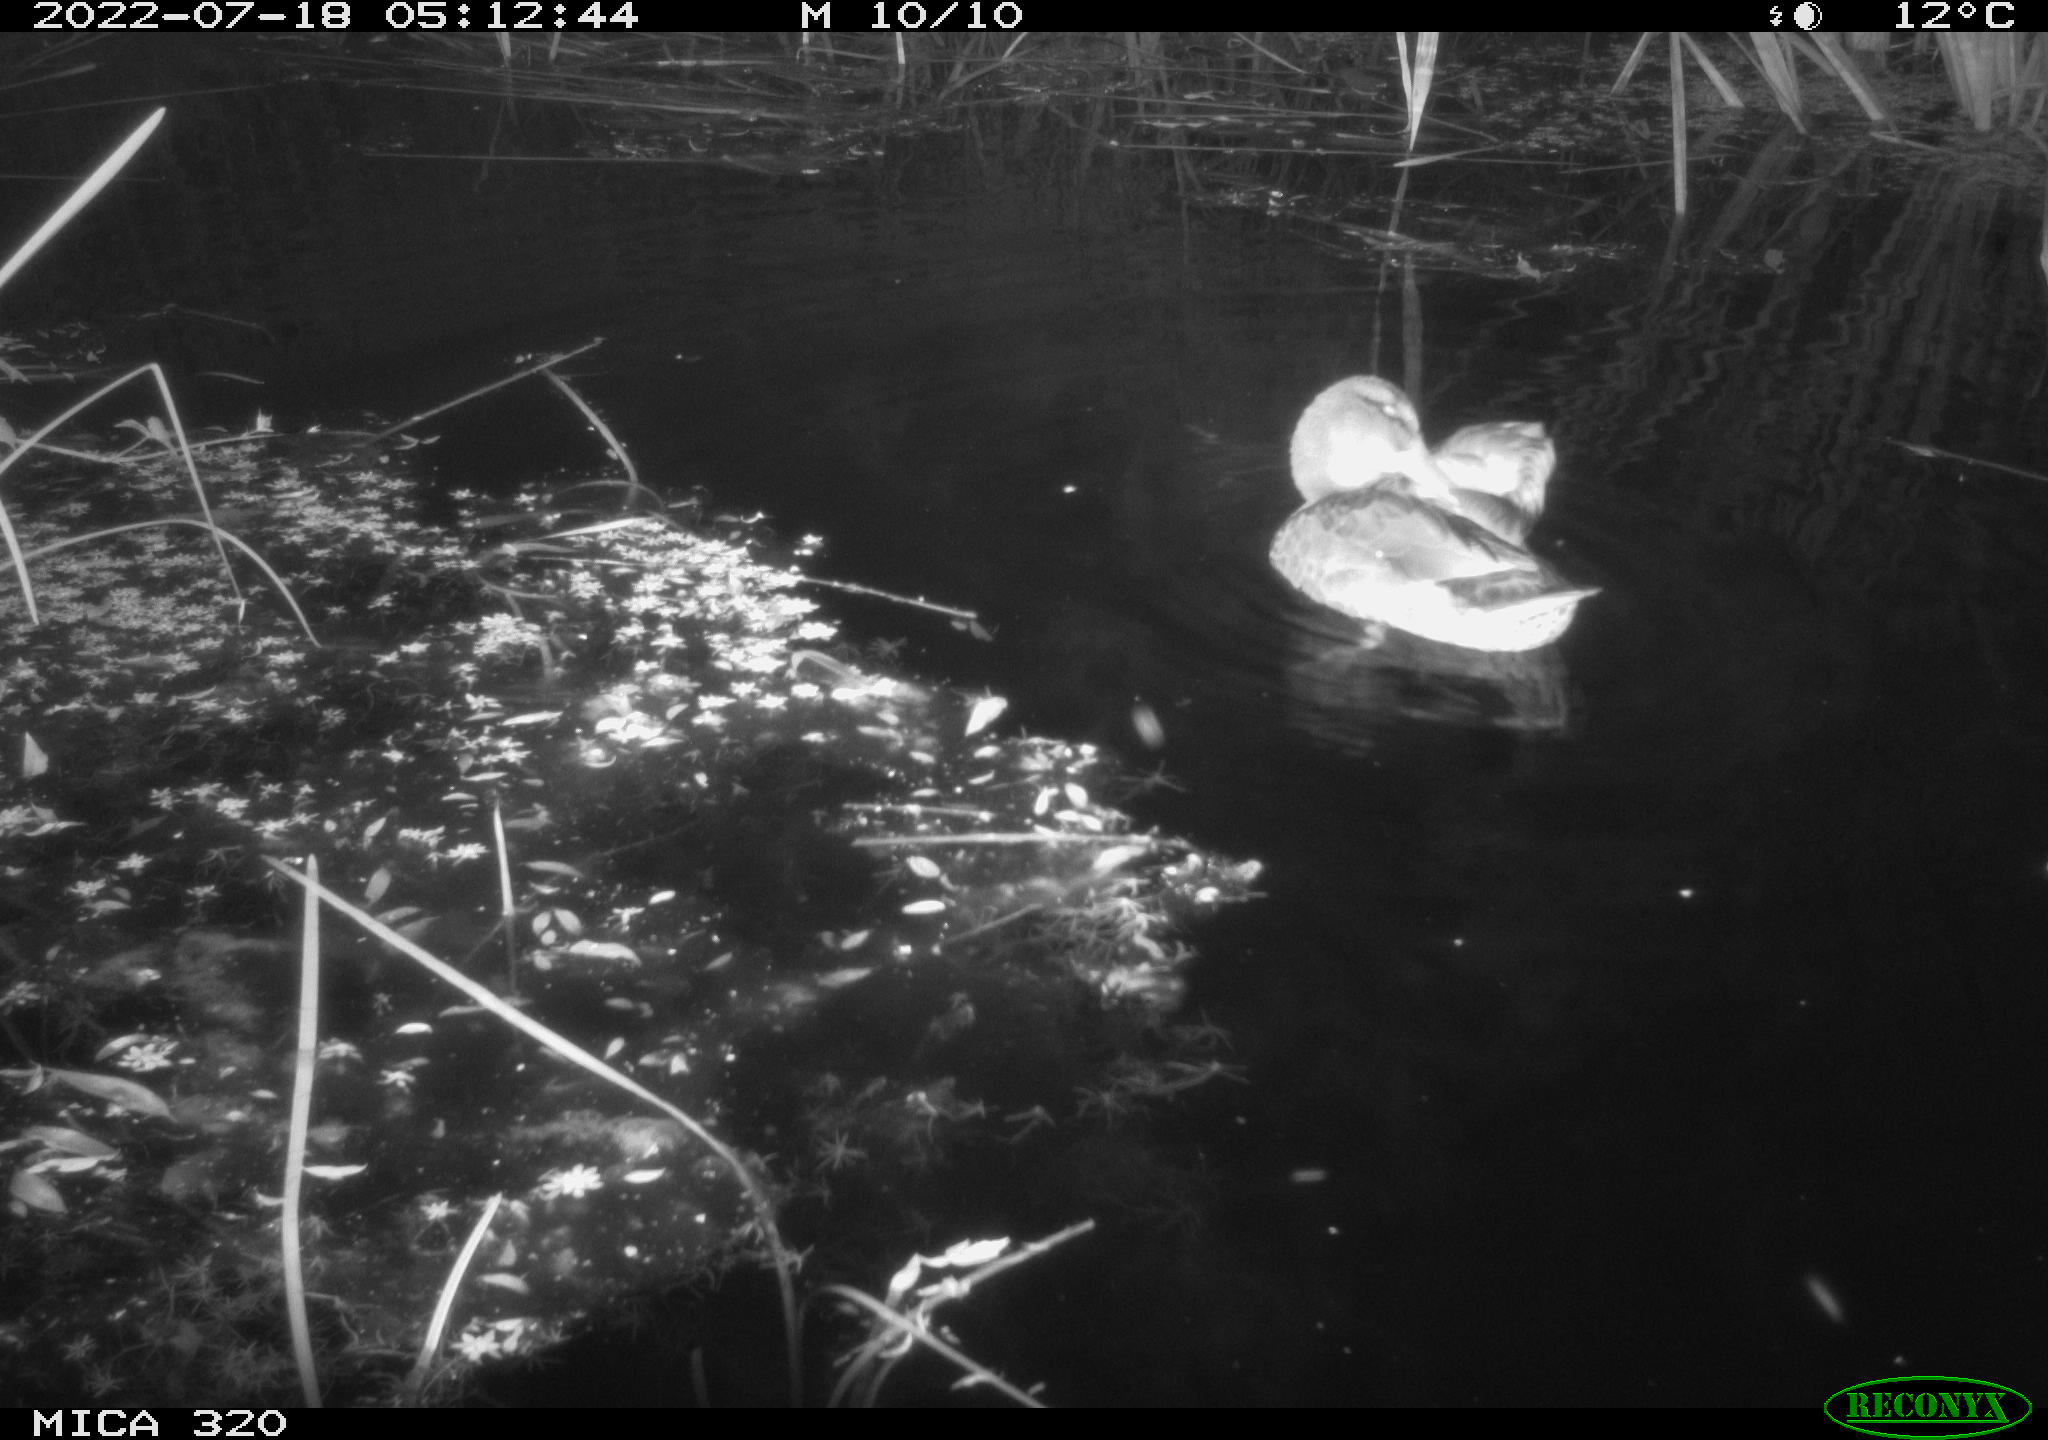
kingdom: Animalia
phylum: Chordata
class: Aves
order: Anseriformes
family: Anatidae
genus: Anas
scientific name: Anas platyrhynchos
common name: Mallard
